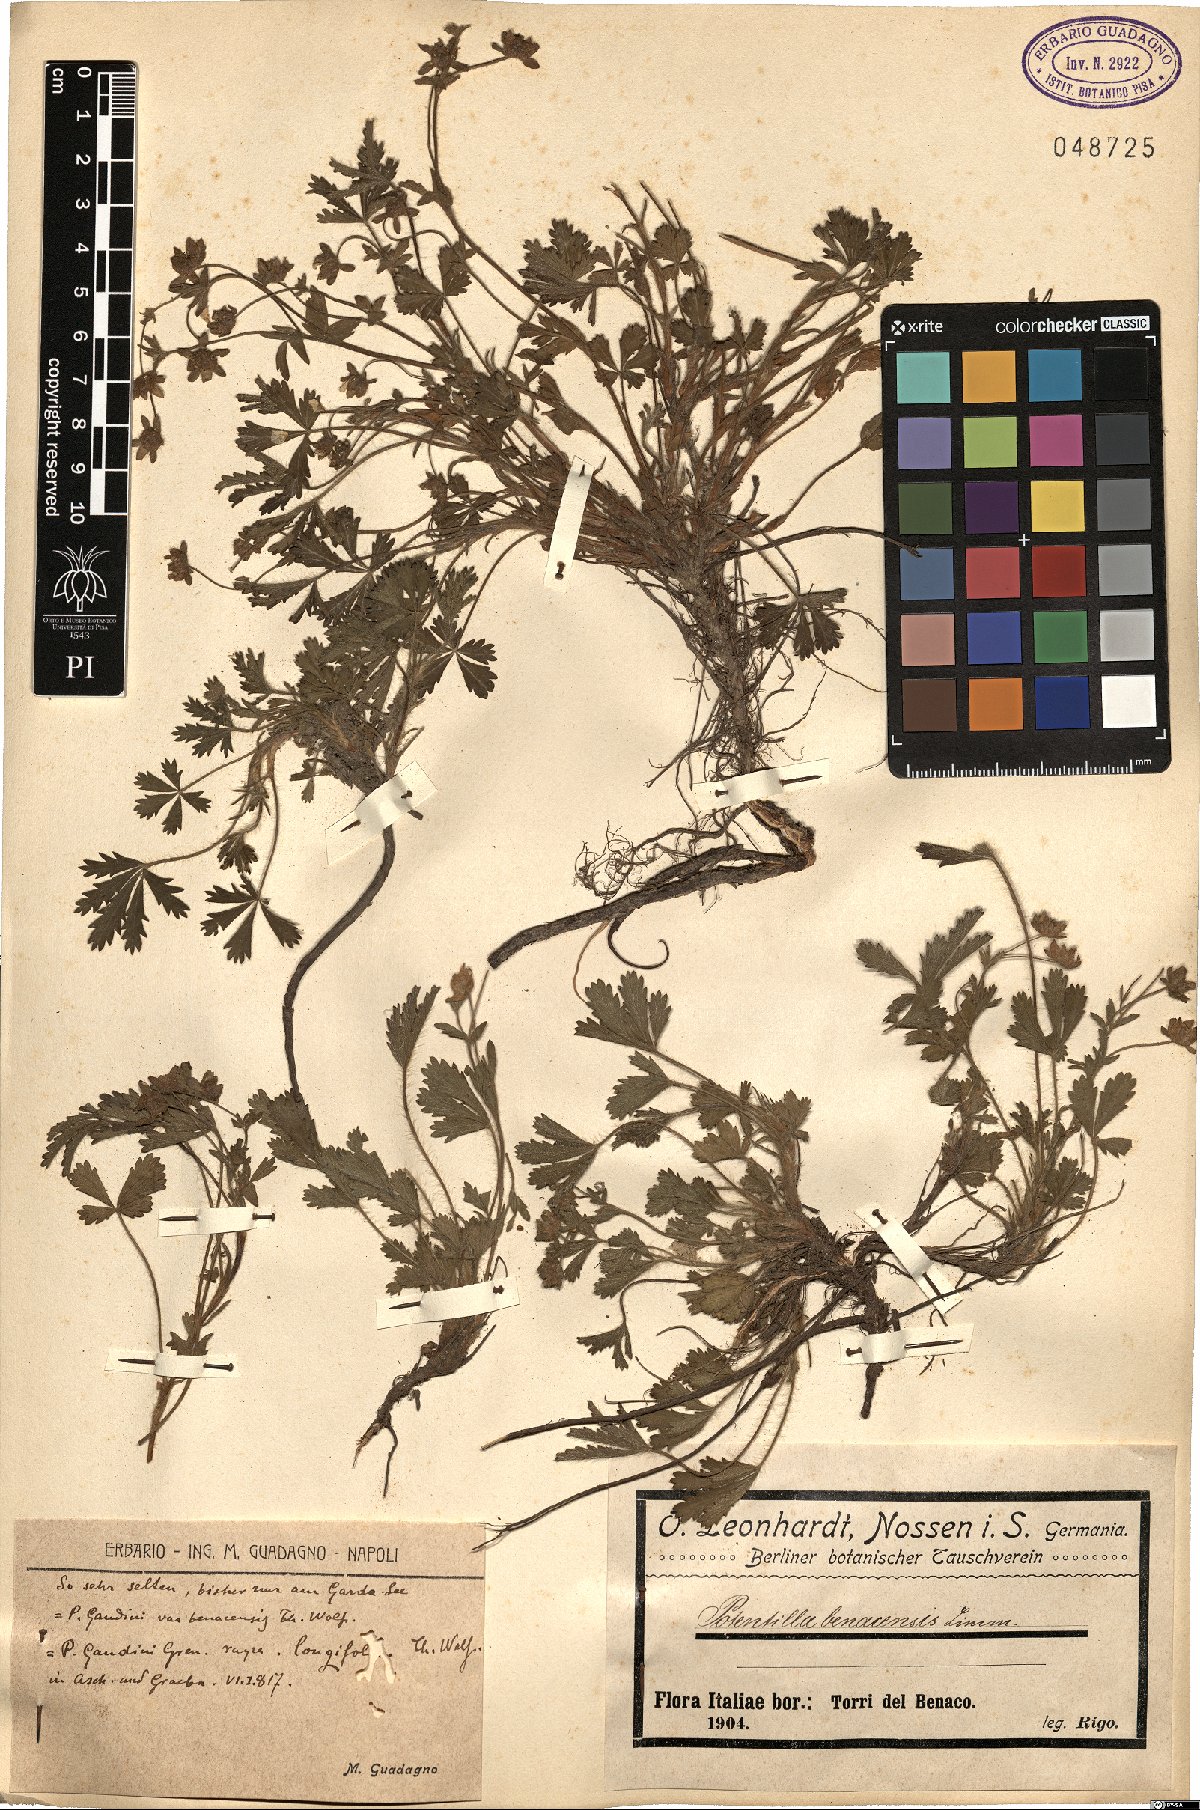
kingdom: Plantae
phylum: Tracheophyta
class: Magnoliopsida
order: Rosales
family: Rosaceae
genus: Potentilla
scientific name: Potentilla benacensis
